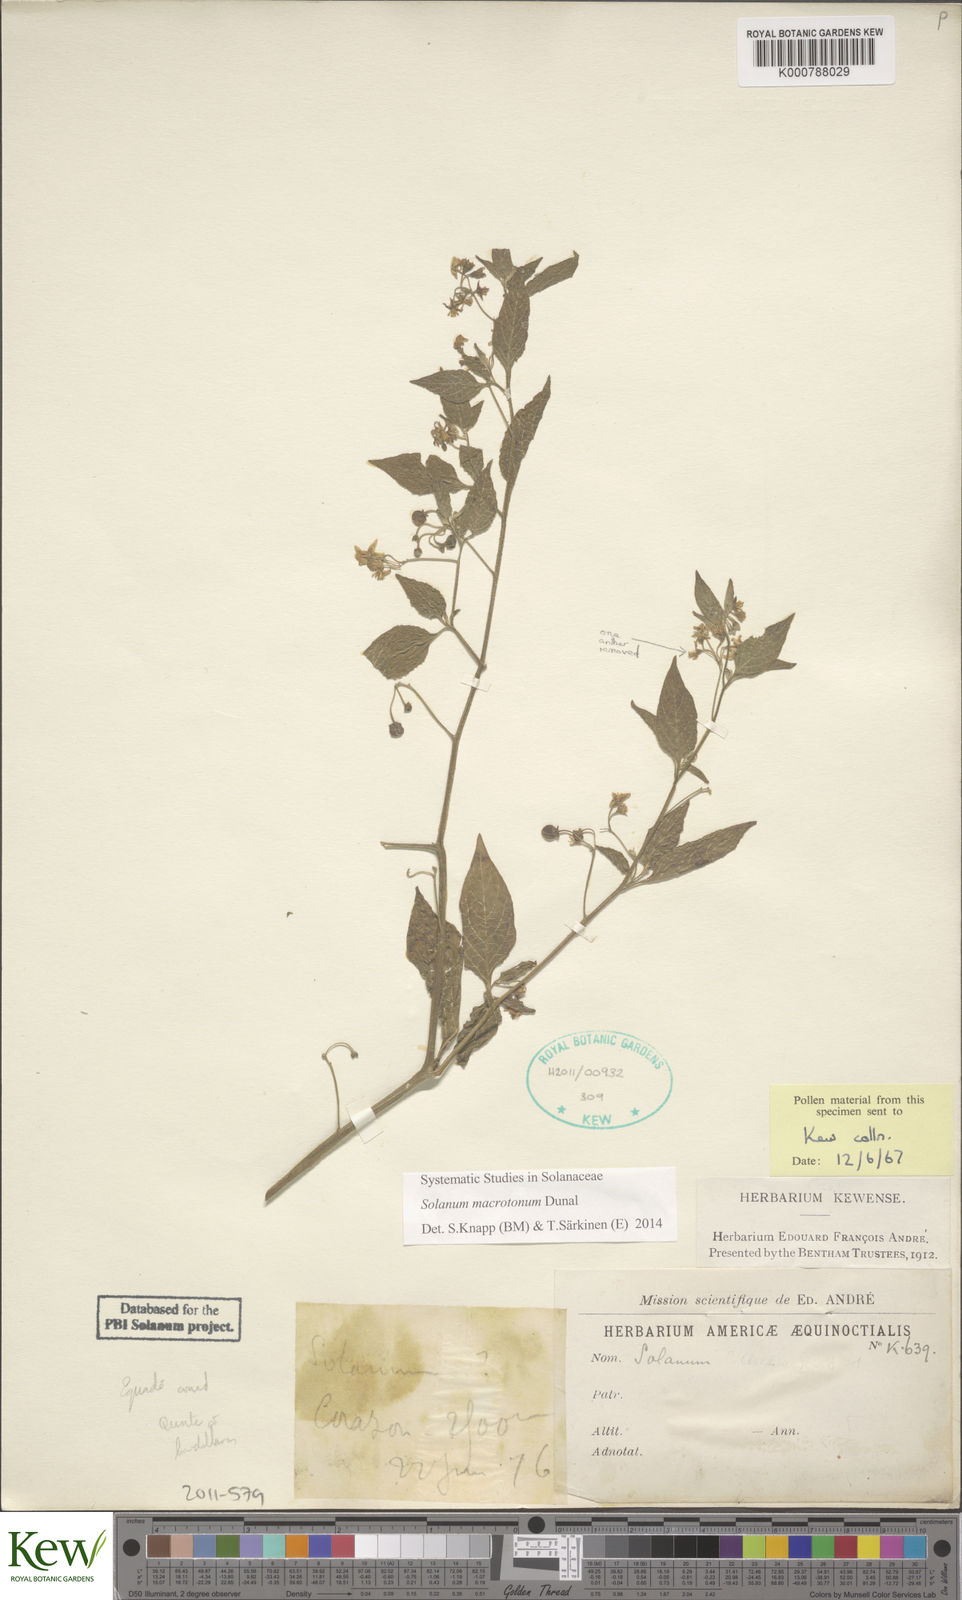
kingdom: Plantae
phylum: Tracheophyta
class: Magnoliopsida
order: Solanales
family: Solanaceae
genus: Solanum
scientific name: Solanum nigrescens
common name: Divine nightshade
